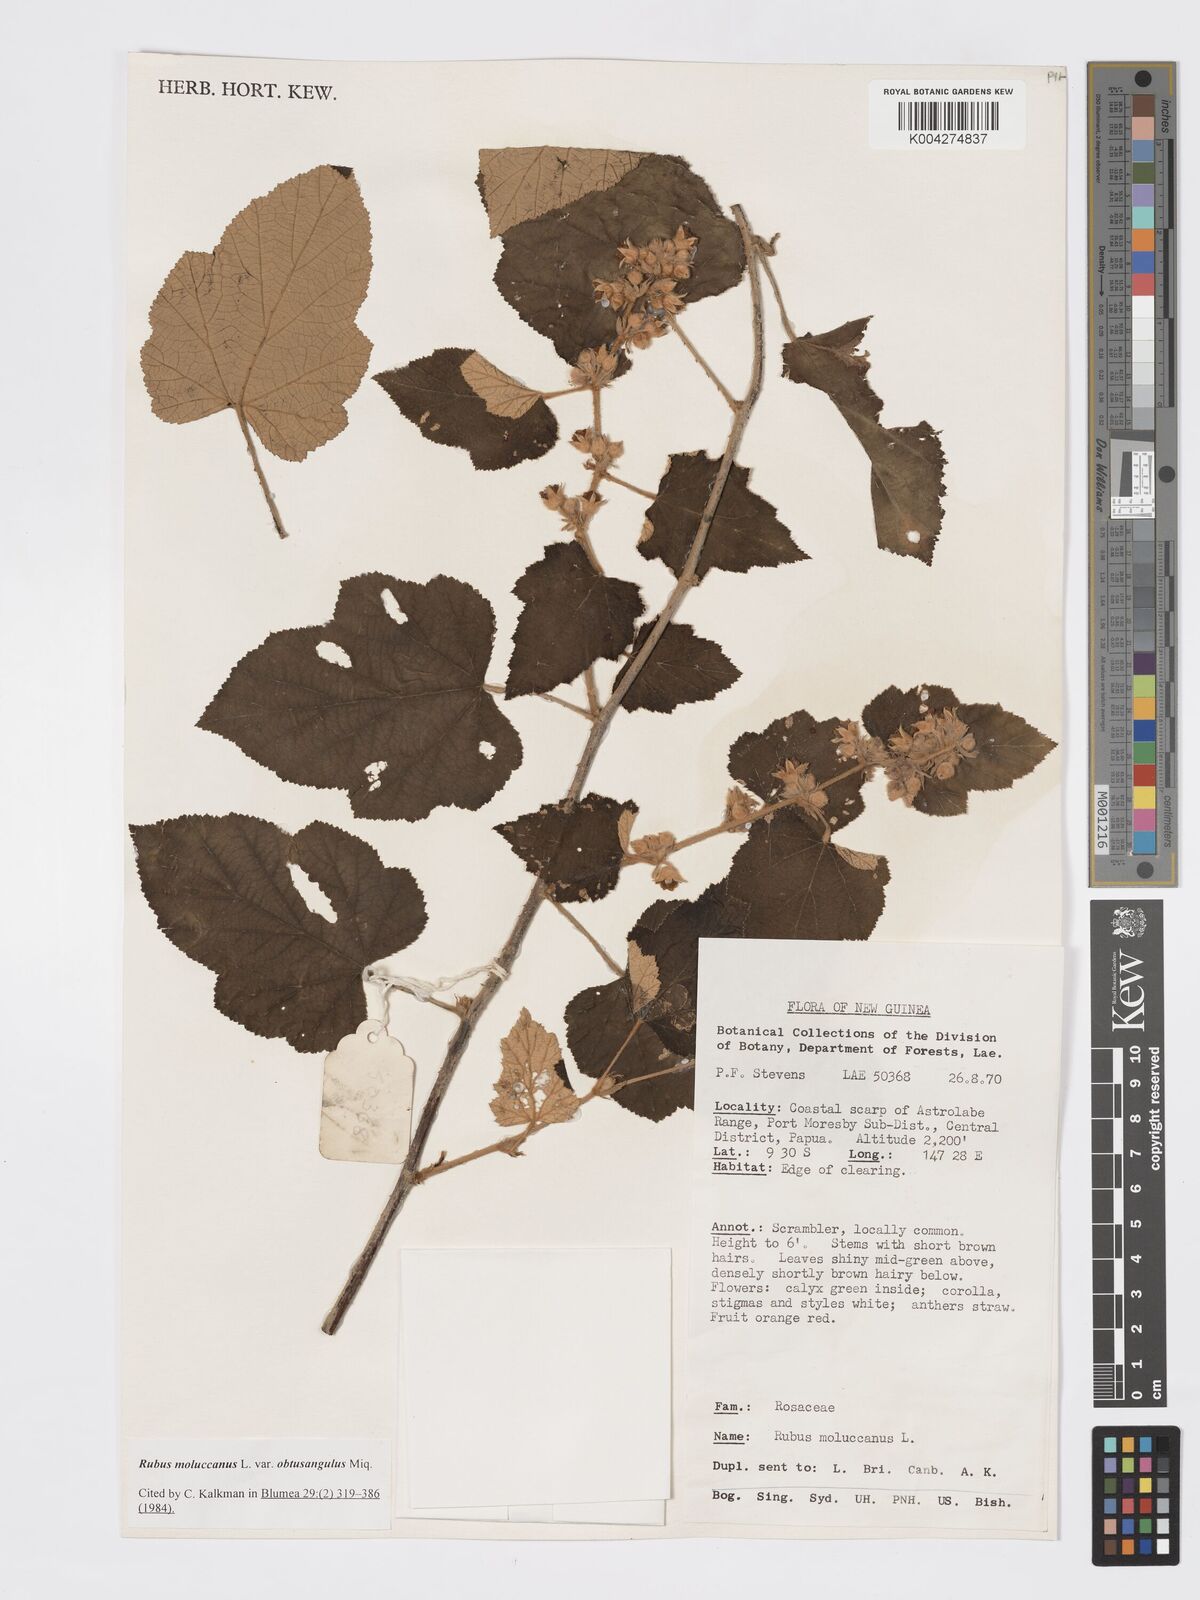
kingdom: Plantae
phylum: Tracheophyta
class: Magnoliopsida
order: Rosales
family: Rosaceae
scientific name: Rosaceae
